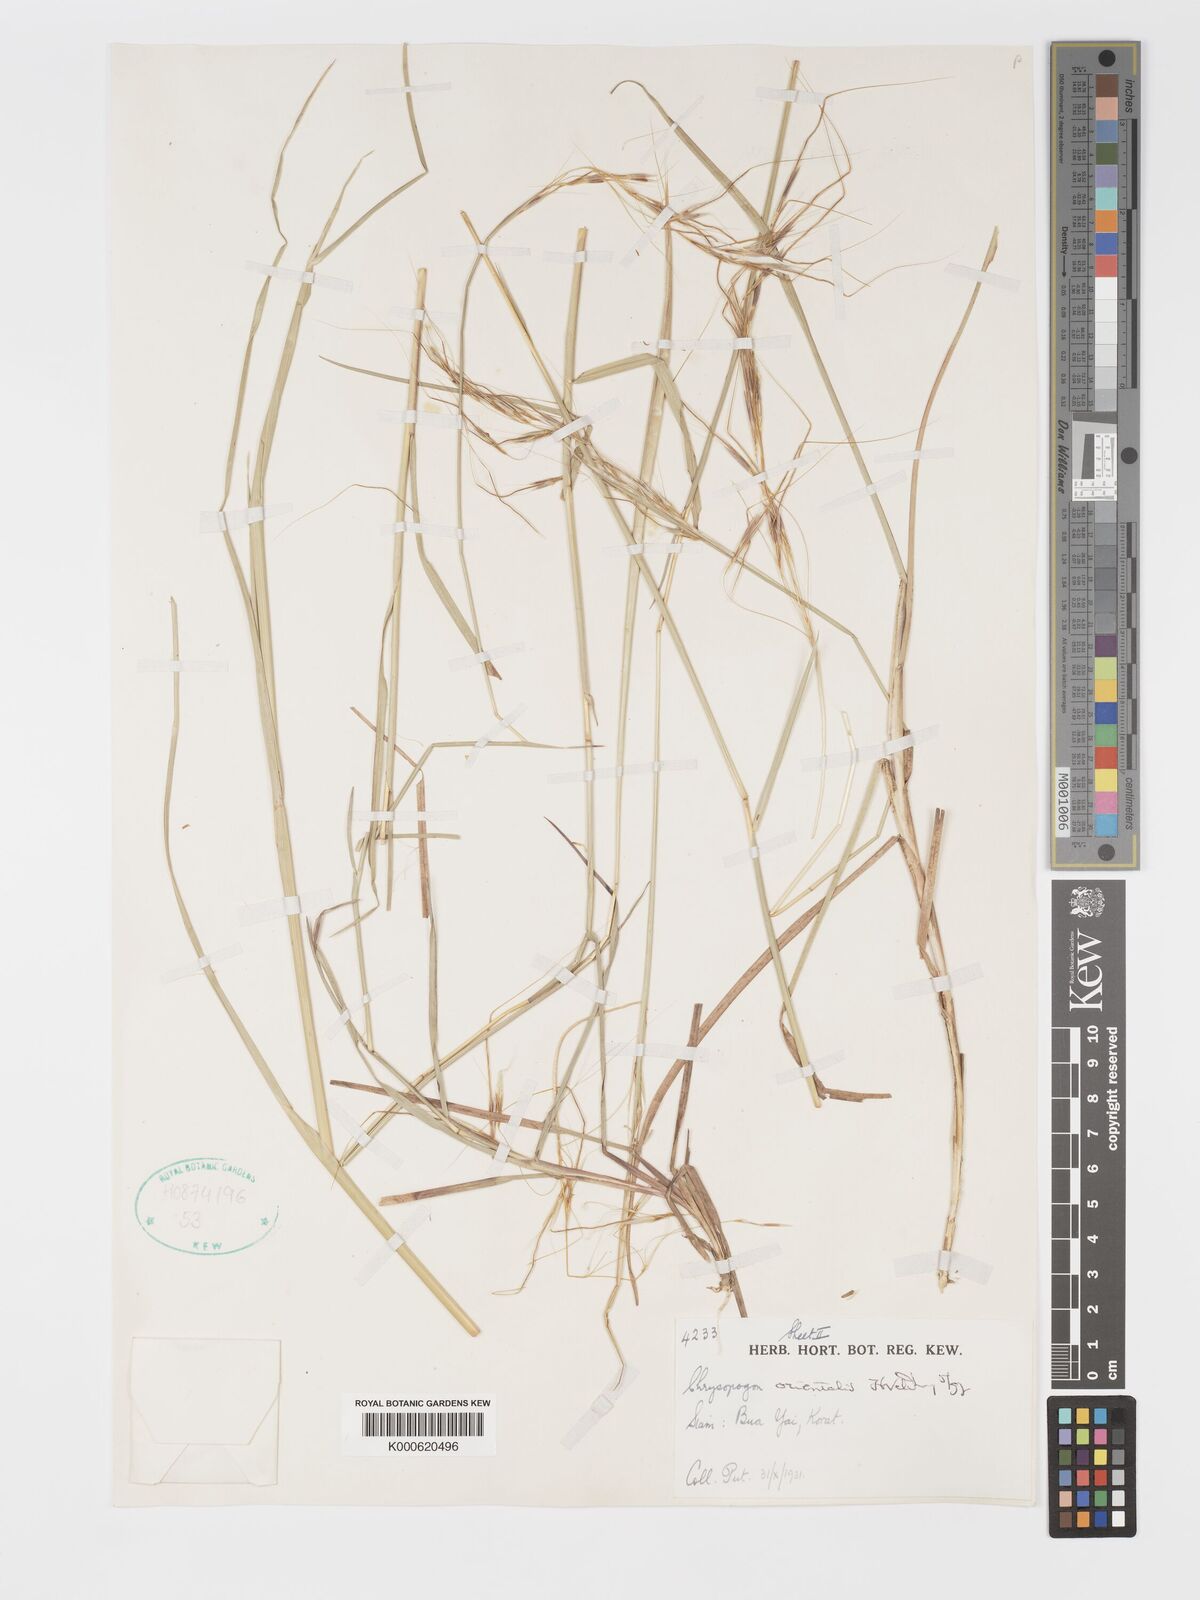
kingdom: Plantae
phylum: Tracheophyta
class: Liliopsida
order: Poales
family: Poaceae
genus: Chrysopogon
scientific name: Chrysopogon orientalis
